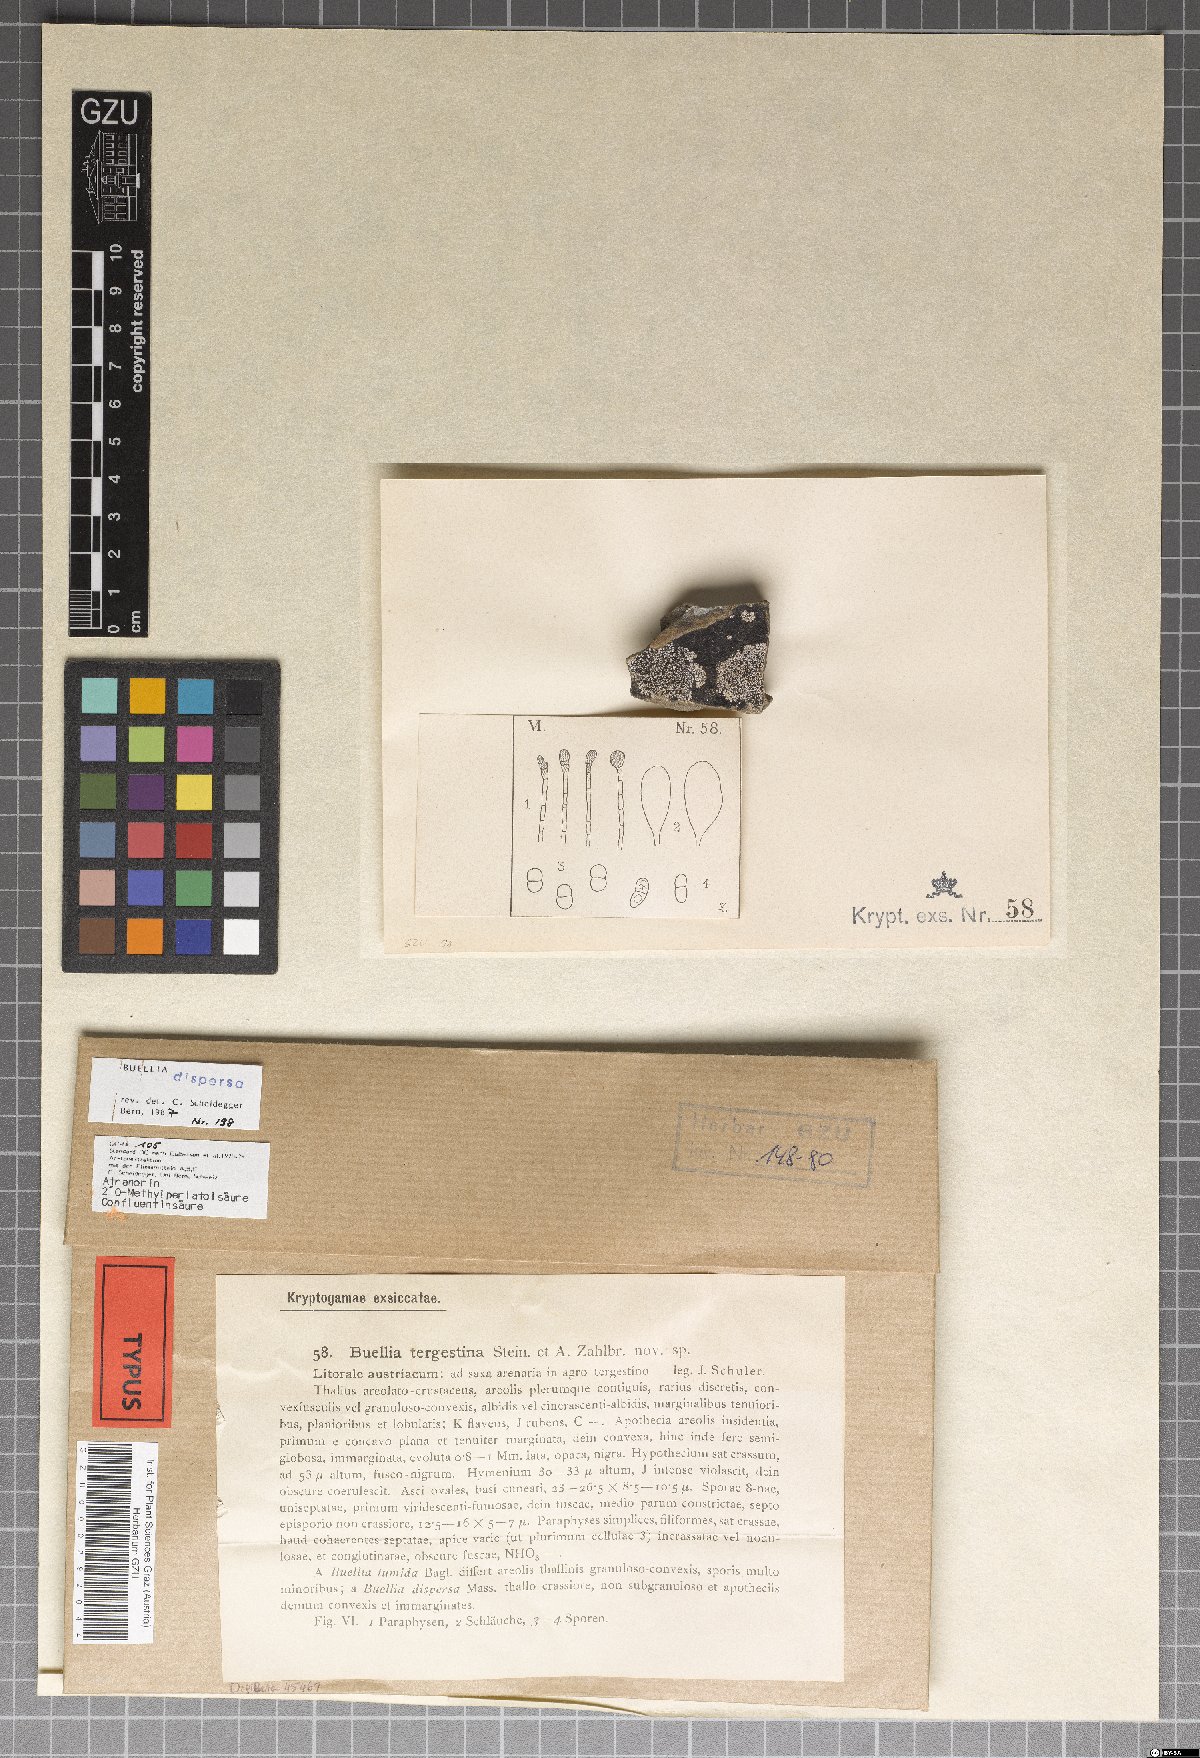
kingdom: Fungi
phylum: Ascomycota
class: Lecanoromycetes
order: Caliciales
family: Caliciaceae
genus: Buellia
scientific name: Buellia dispersa
